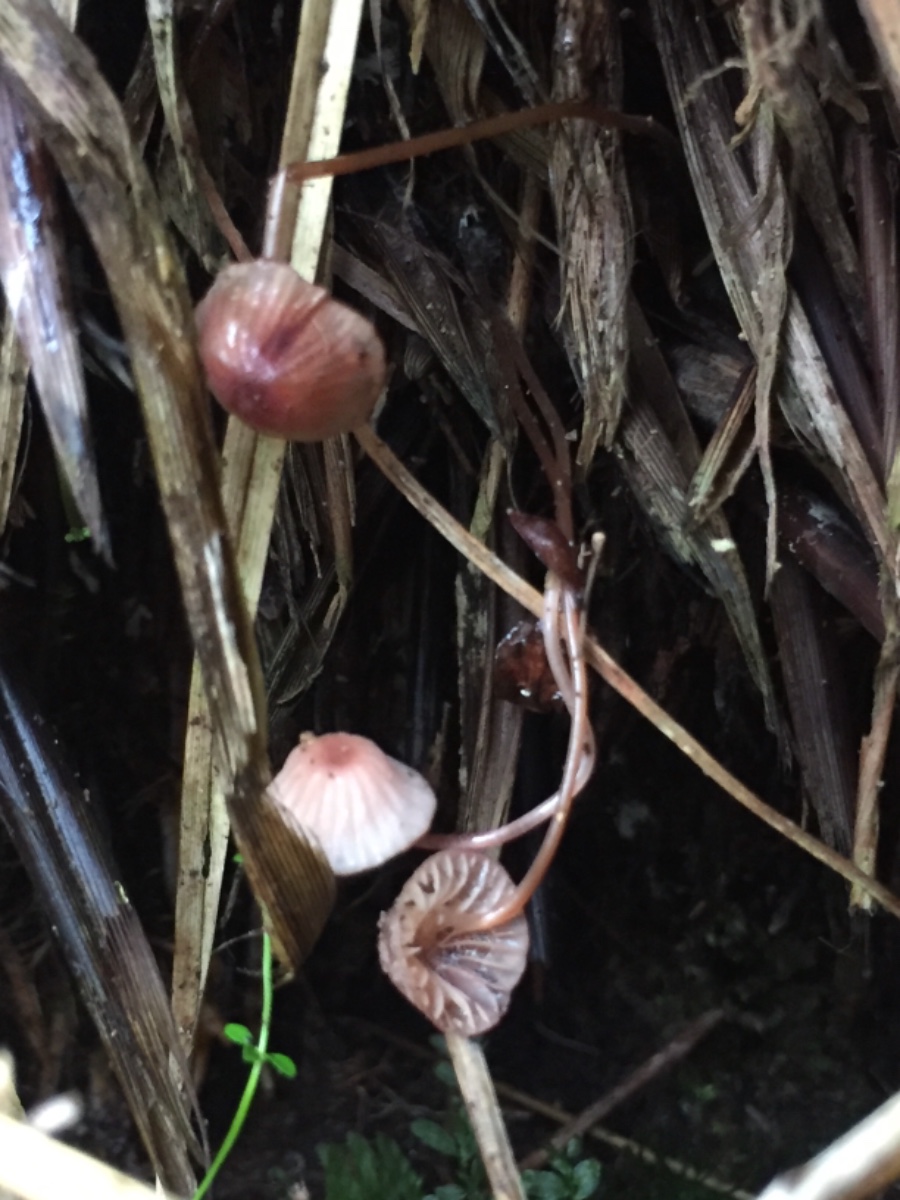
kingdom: Fungi
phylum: Basidiomycota
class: Agaricomycetes
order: Agaricales
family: Mycenaceae
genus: Mycena
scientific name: Mycena sanguinolenta
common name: rødmælket huesvamp
